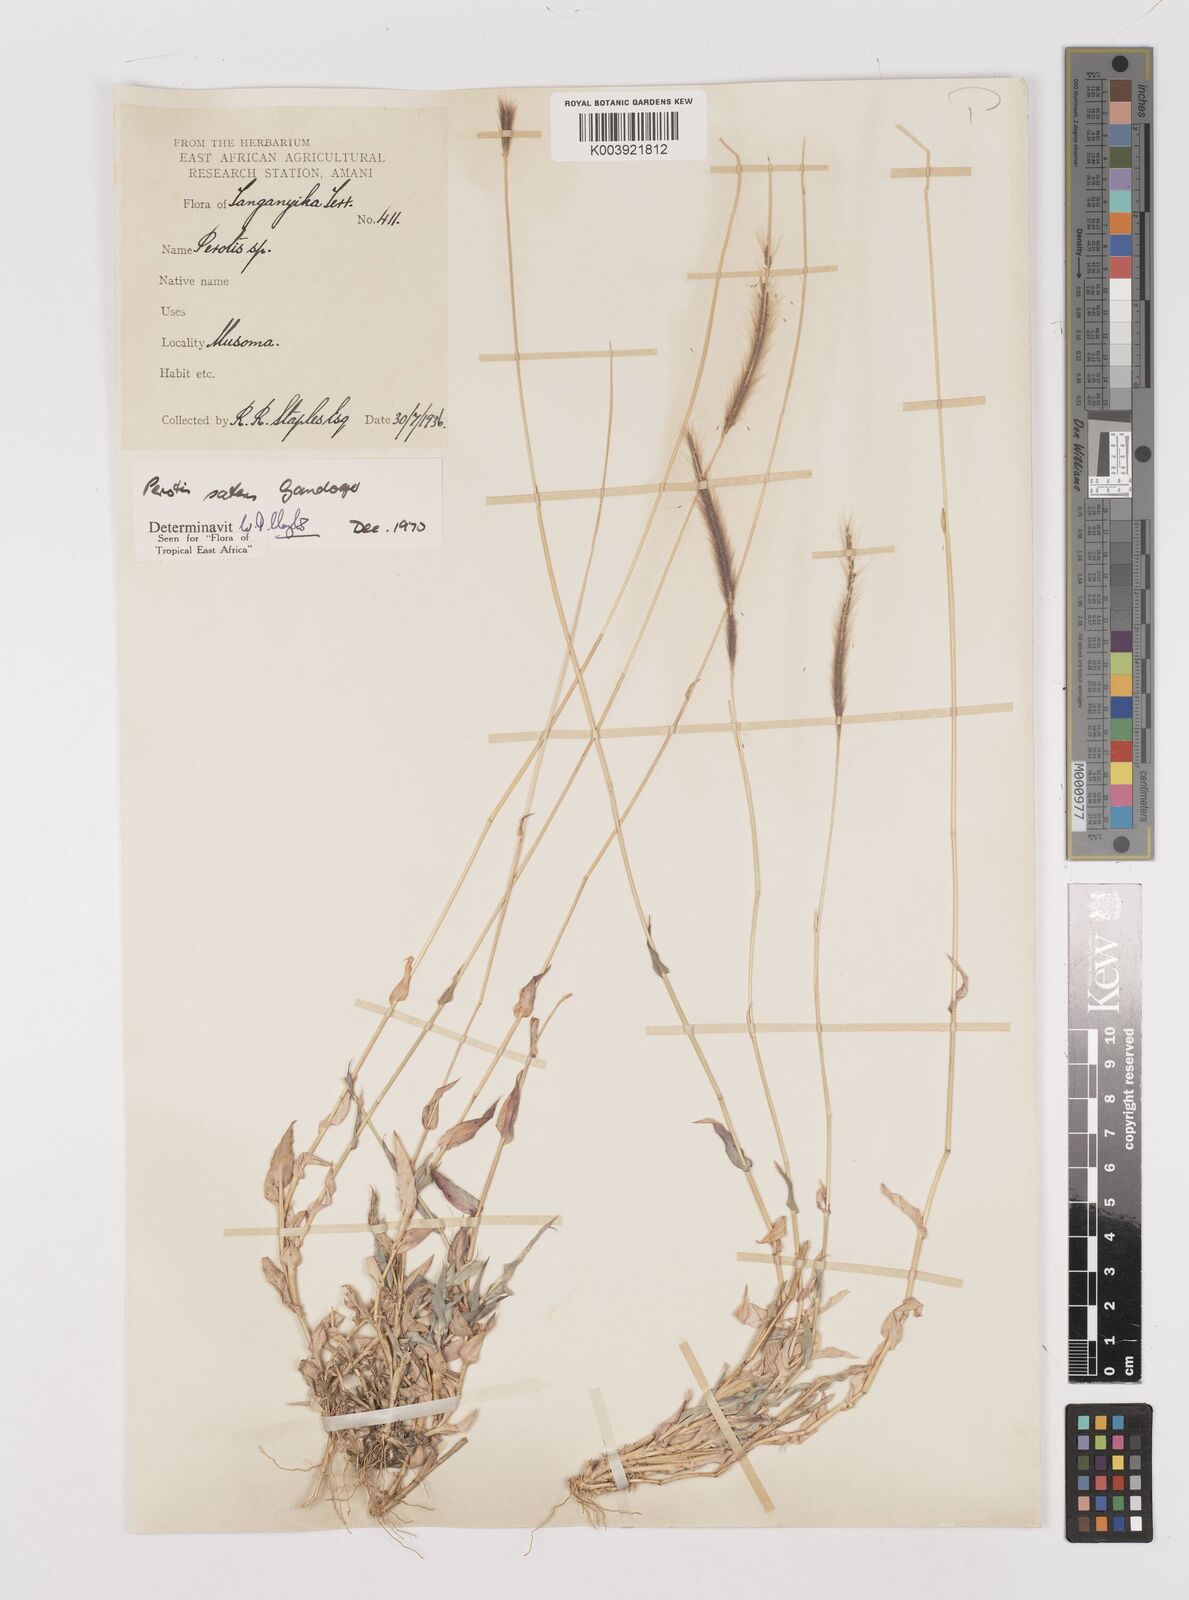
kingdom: Plantae
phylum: Tracheophyta
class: Liliopsida
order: Poales
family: Poaceae
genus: Perotis
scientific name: Perotis patens
